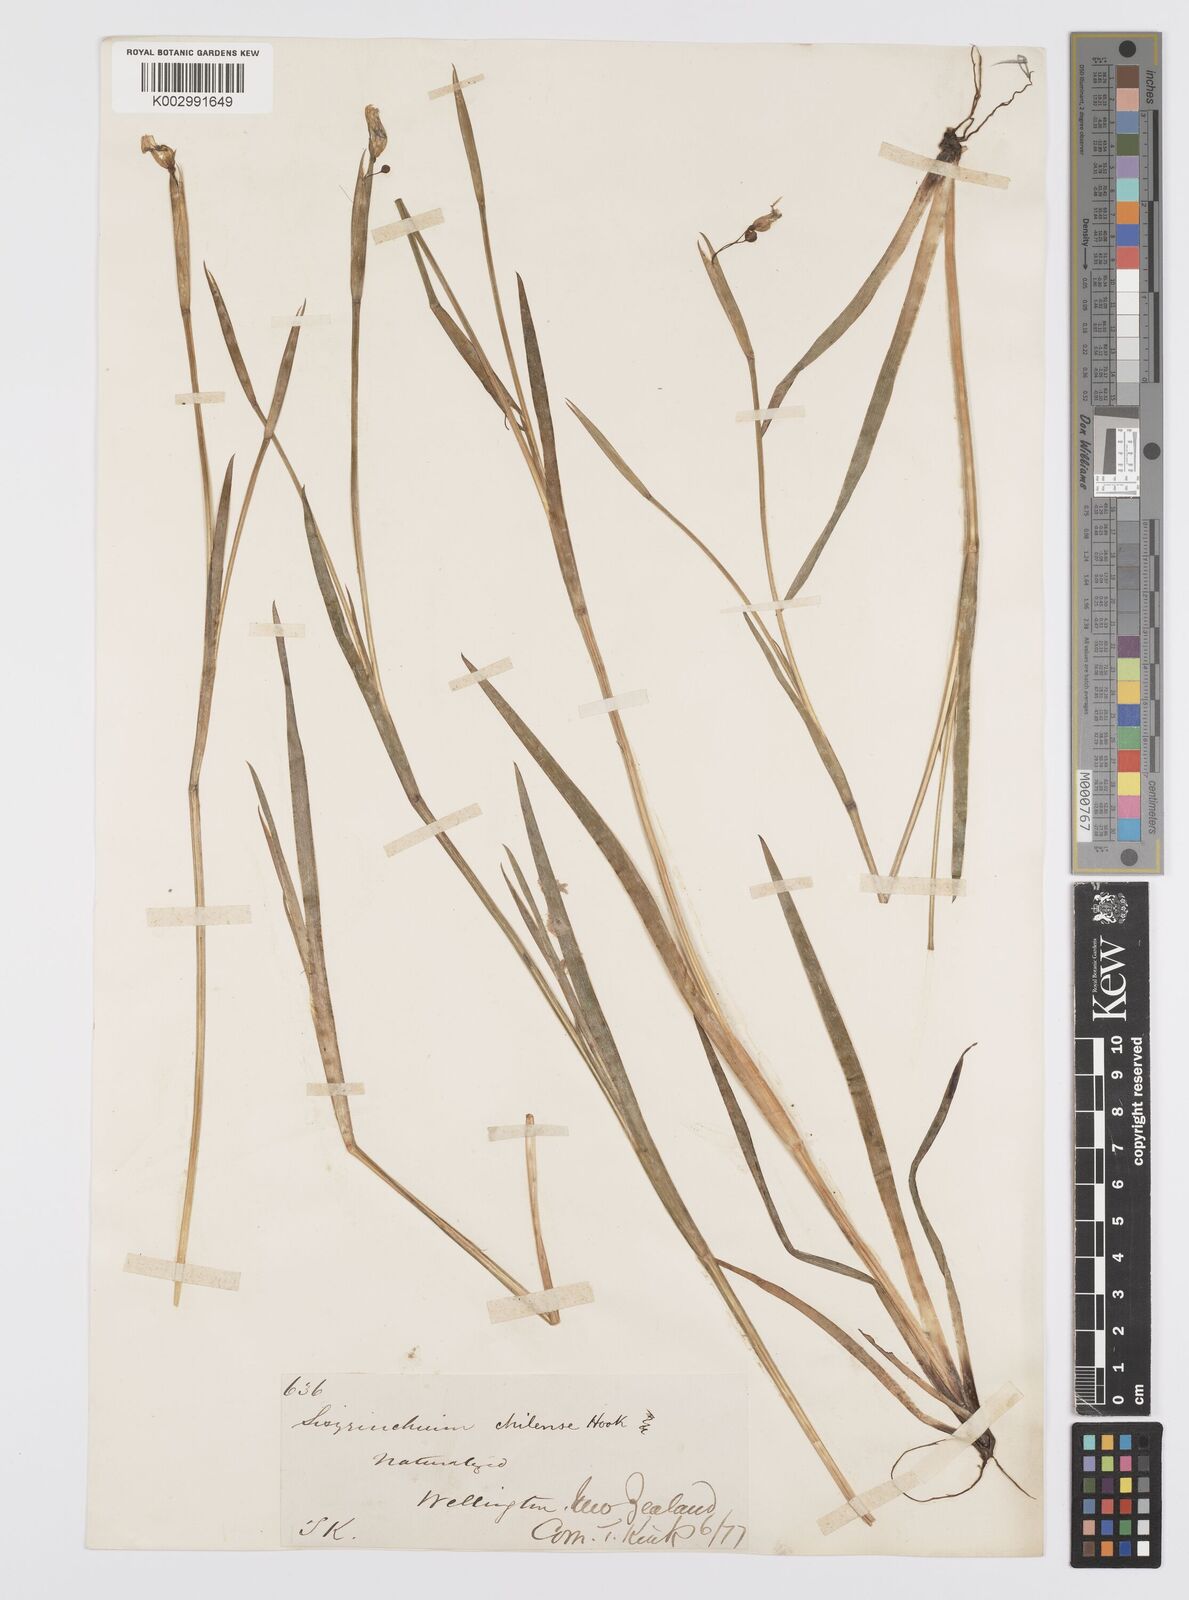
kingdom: Plantae
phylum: Tracheophyta
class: Liliopsida
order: Asparagales
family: Iridaceae
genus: Sisyrinchium
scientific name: Sisyrinchium chilense
